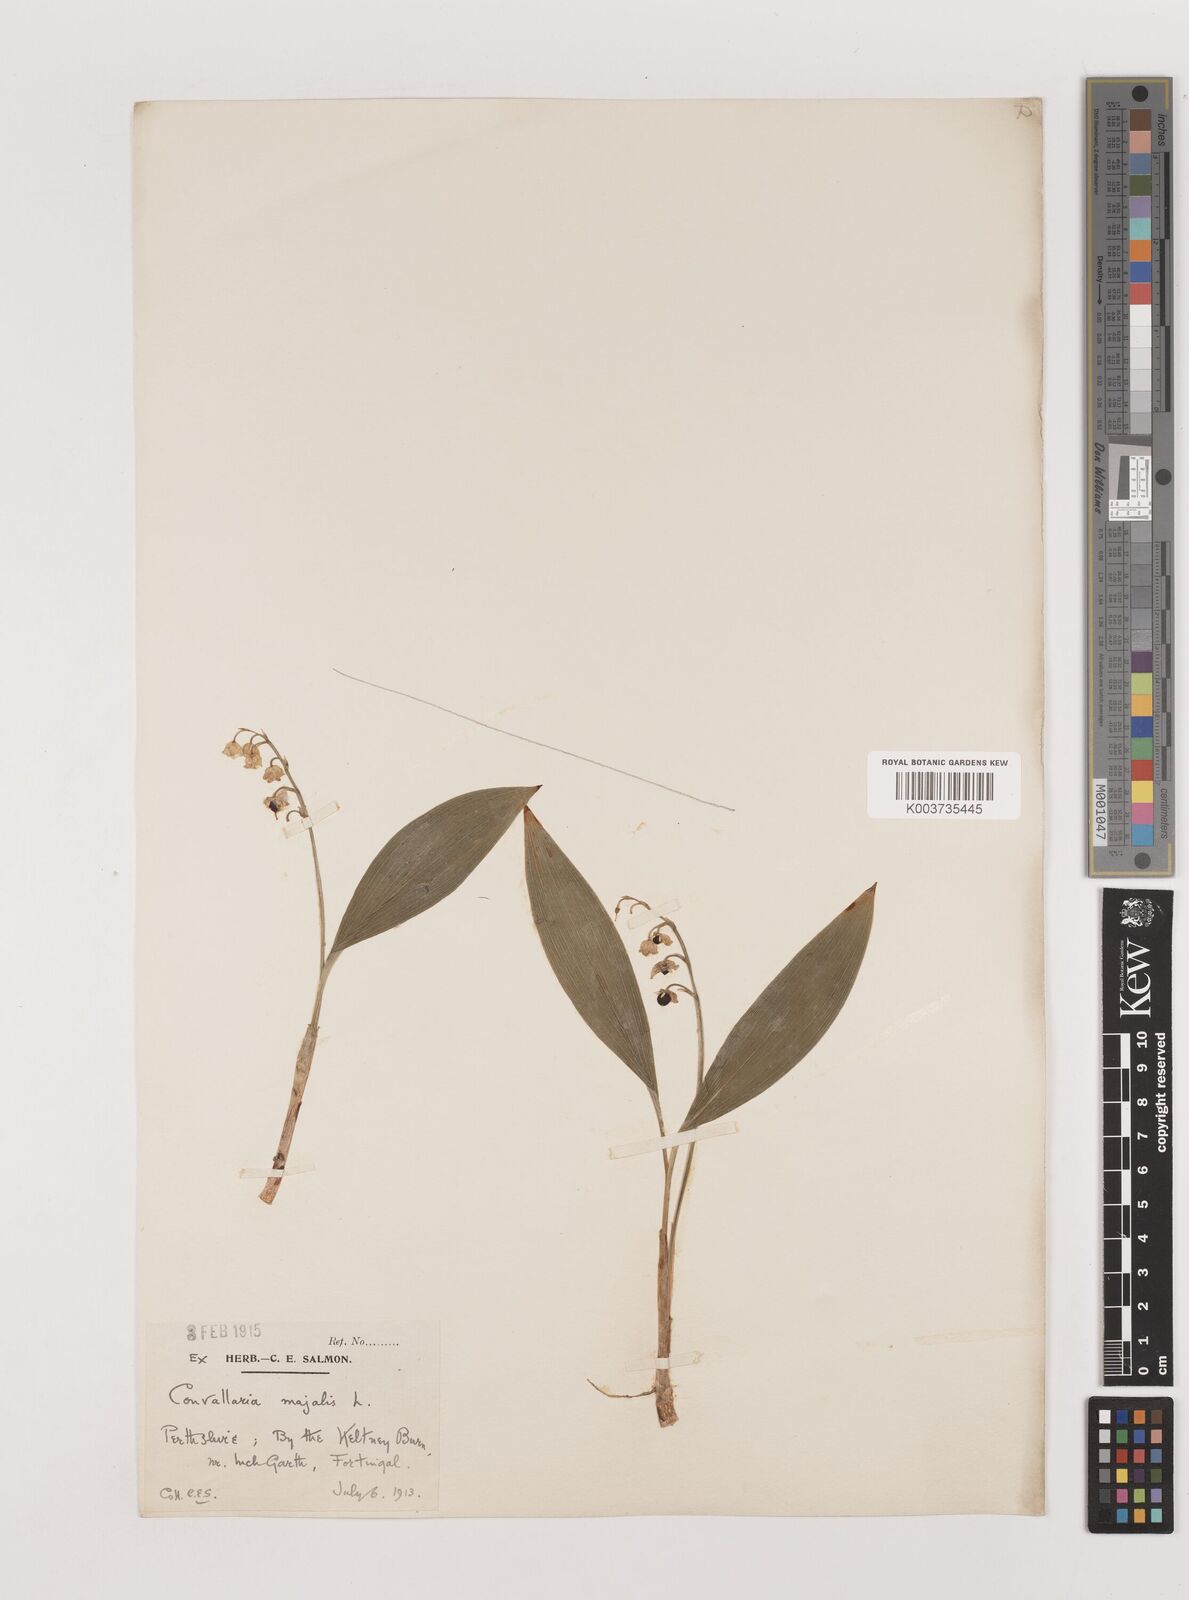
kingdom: Plantae
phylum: Tracheophyta
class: Liliopsida
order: Asparagales
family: Asparagaceae
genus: Convallaria
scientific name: Convallaria majalis
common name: Lily-of-the-valley
